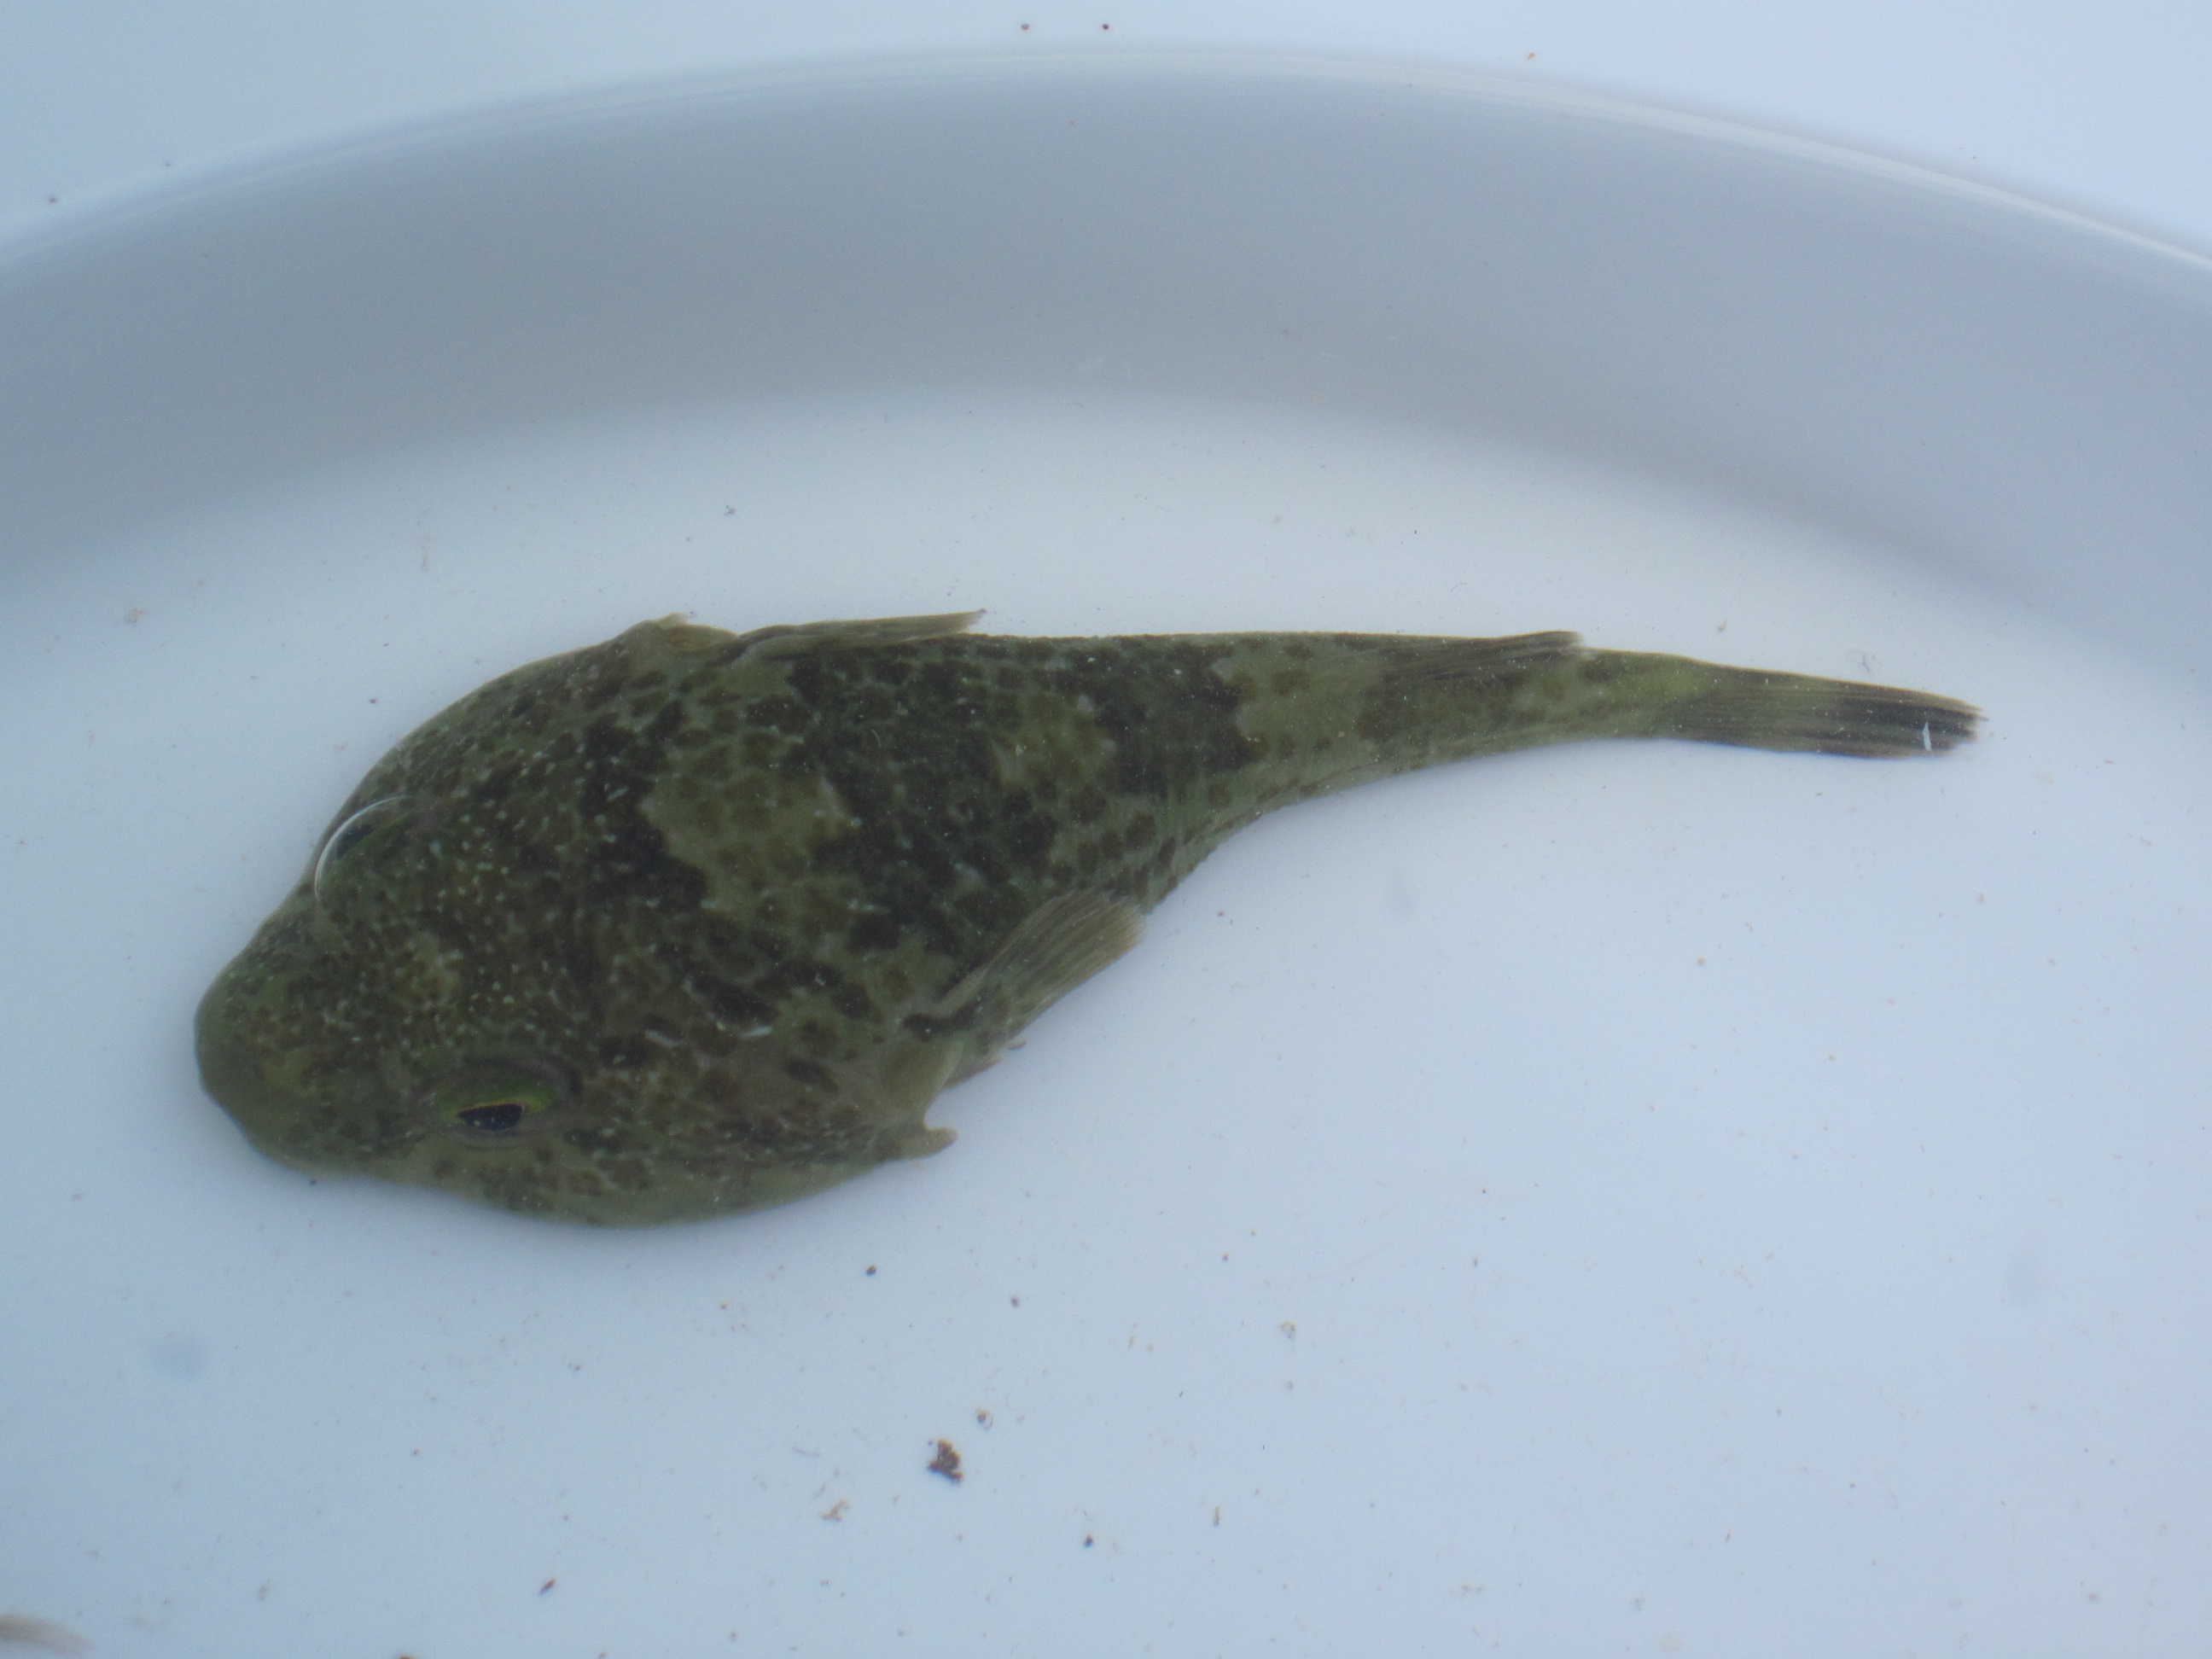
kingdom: Animalia
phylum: Chordata
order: Gobiesociformes
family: Gobiesocidae
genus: Chorisochismus
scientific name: Chorisochismus dentex
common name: Rocksucker
